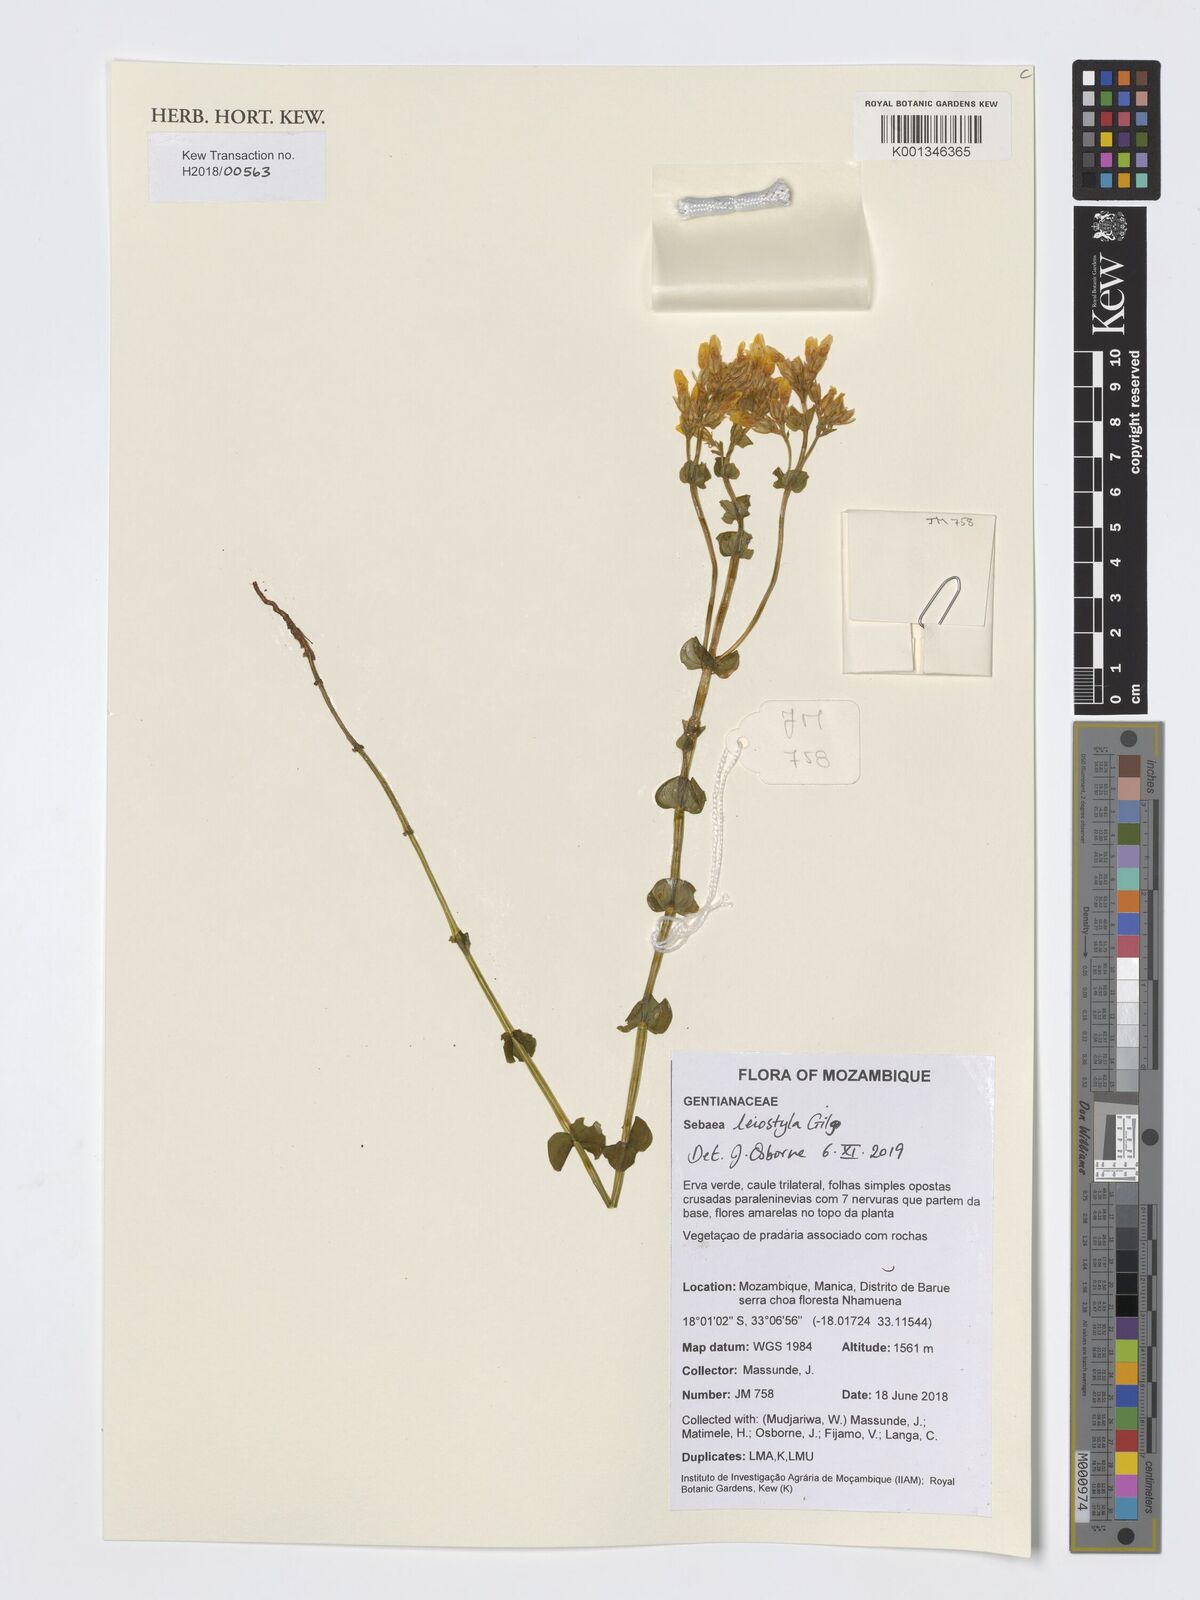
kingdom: Plantae
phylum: Tracheophyta
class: Magnoliopsida
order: Gentianales
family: Gentianaceae
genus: Sebaea
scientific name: Sebaea leiostyla
